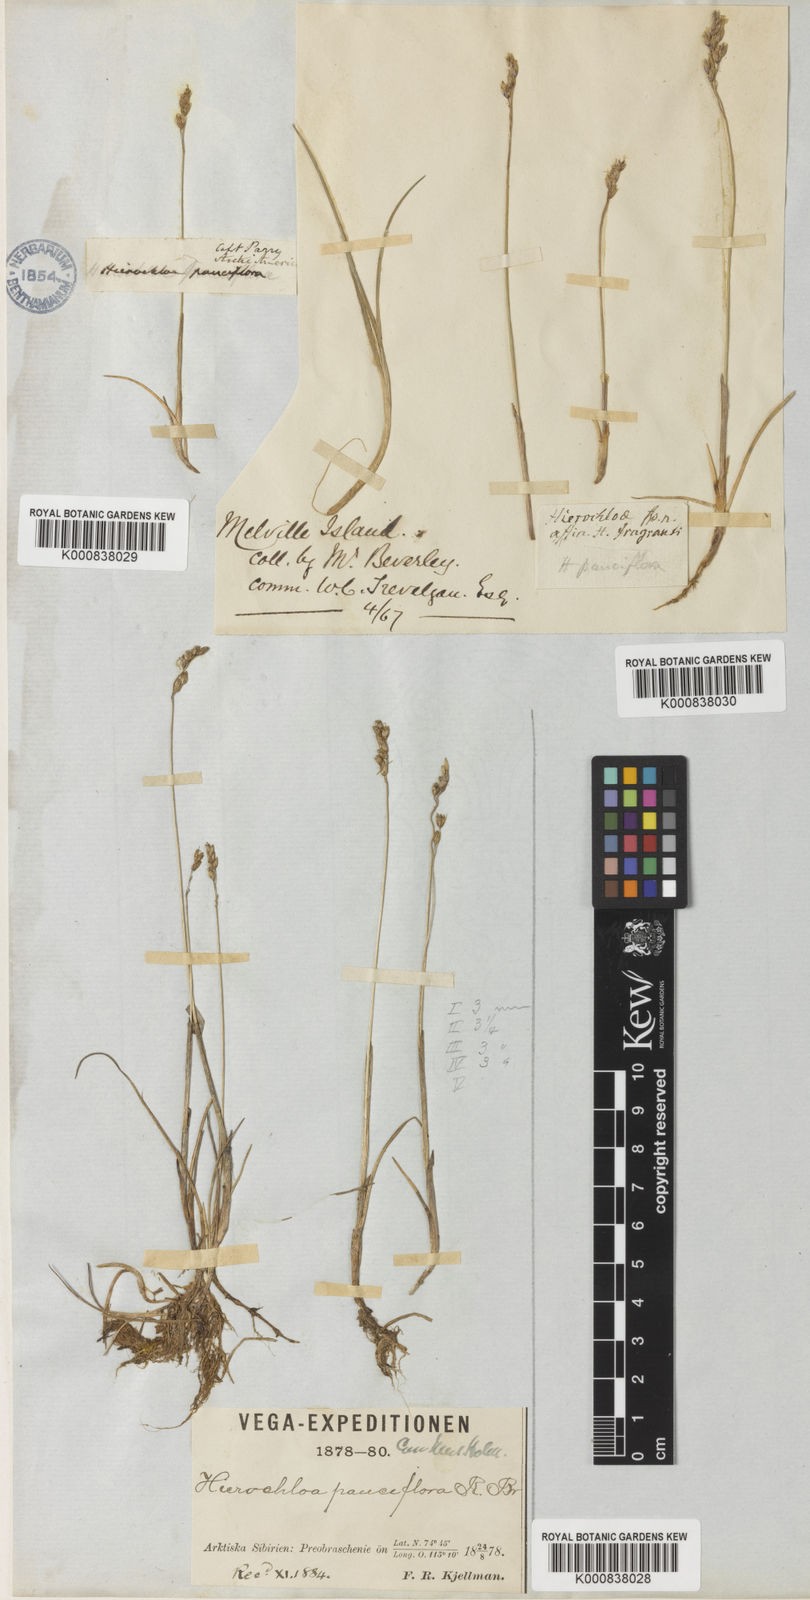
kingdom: Plantae
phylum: Tracheophyta
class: Liliopsida
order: Poales
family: Poaceae
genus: Anthoxanthum
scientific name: Anthoxanthum arcticum
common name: Arctic sweetgrass
